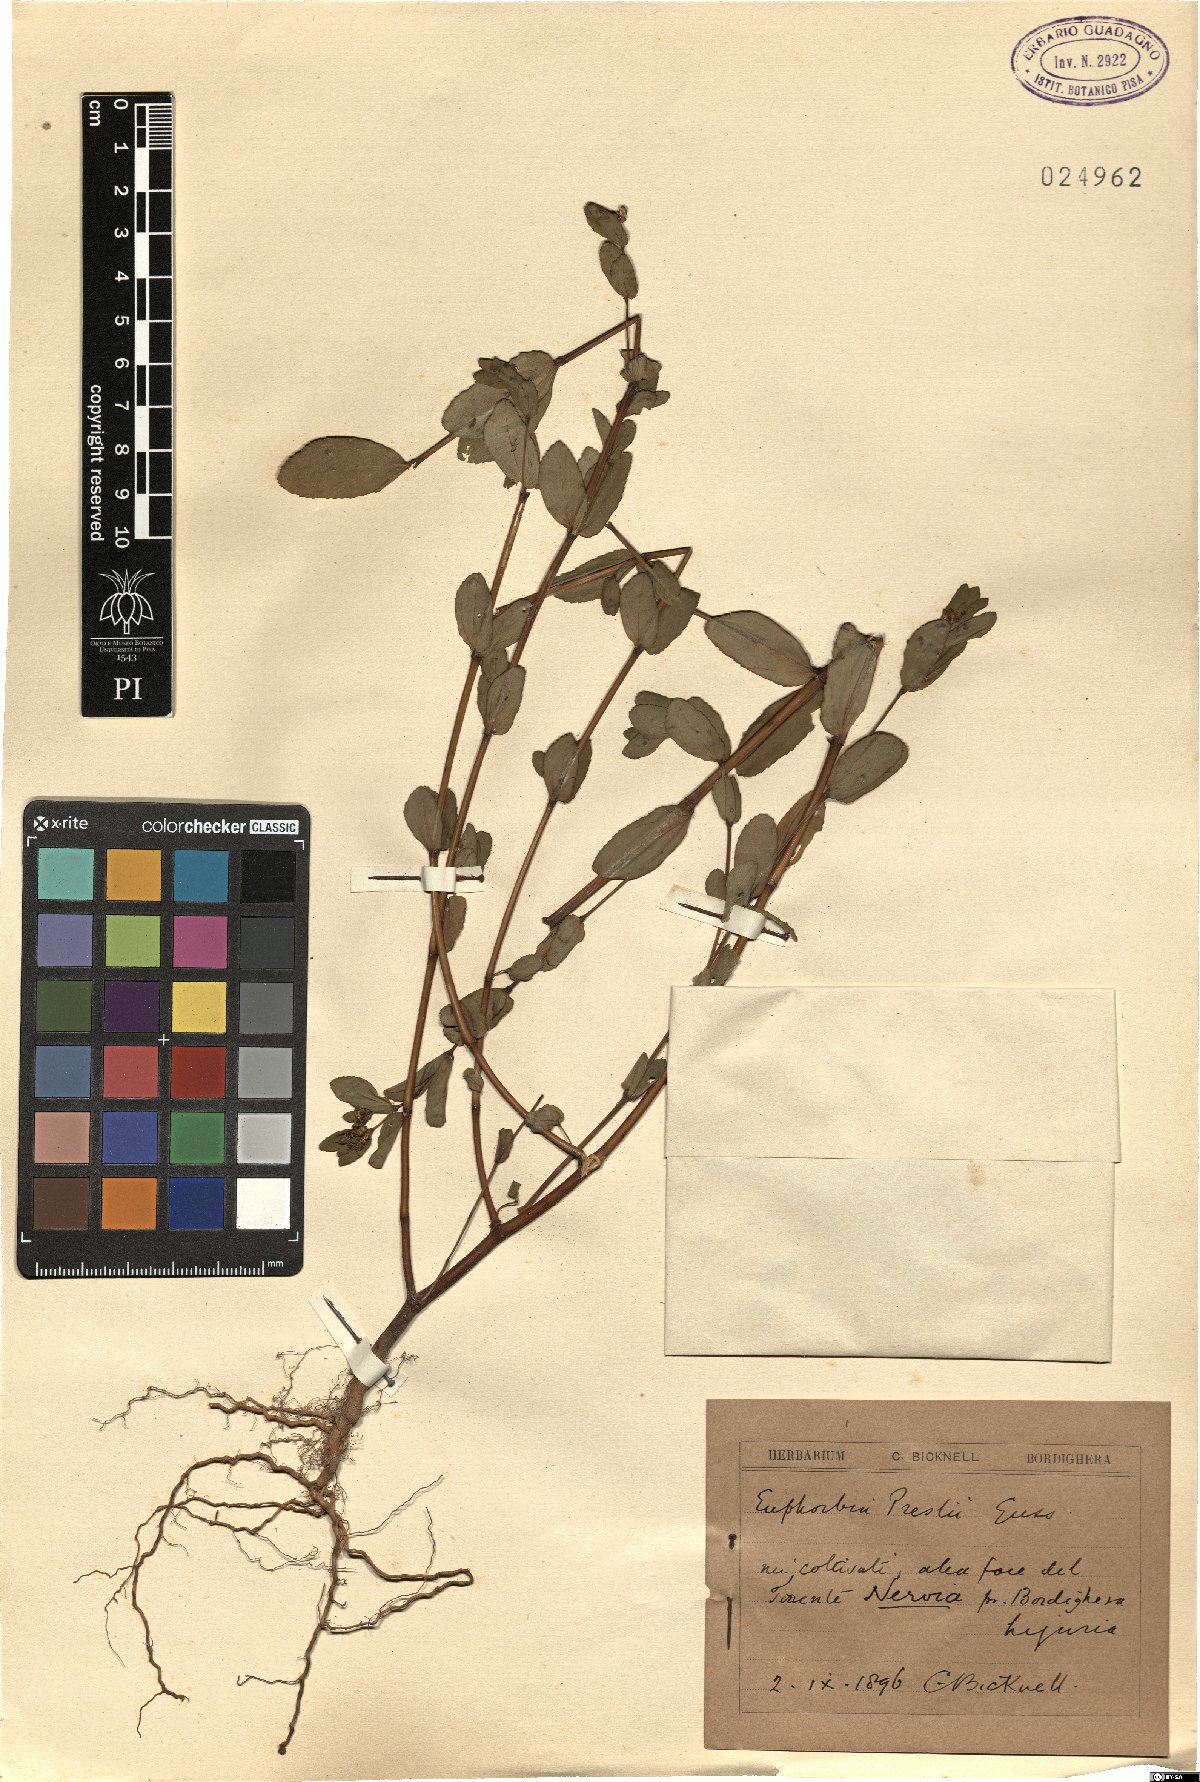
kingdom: Plantae
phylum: Tracheophyta
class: Magnoliopsida
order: Malpighiales
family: Euphorbiaceae
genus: Euphorbia
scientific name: Euphorbia nutans
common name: Eyebane
